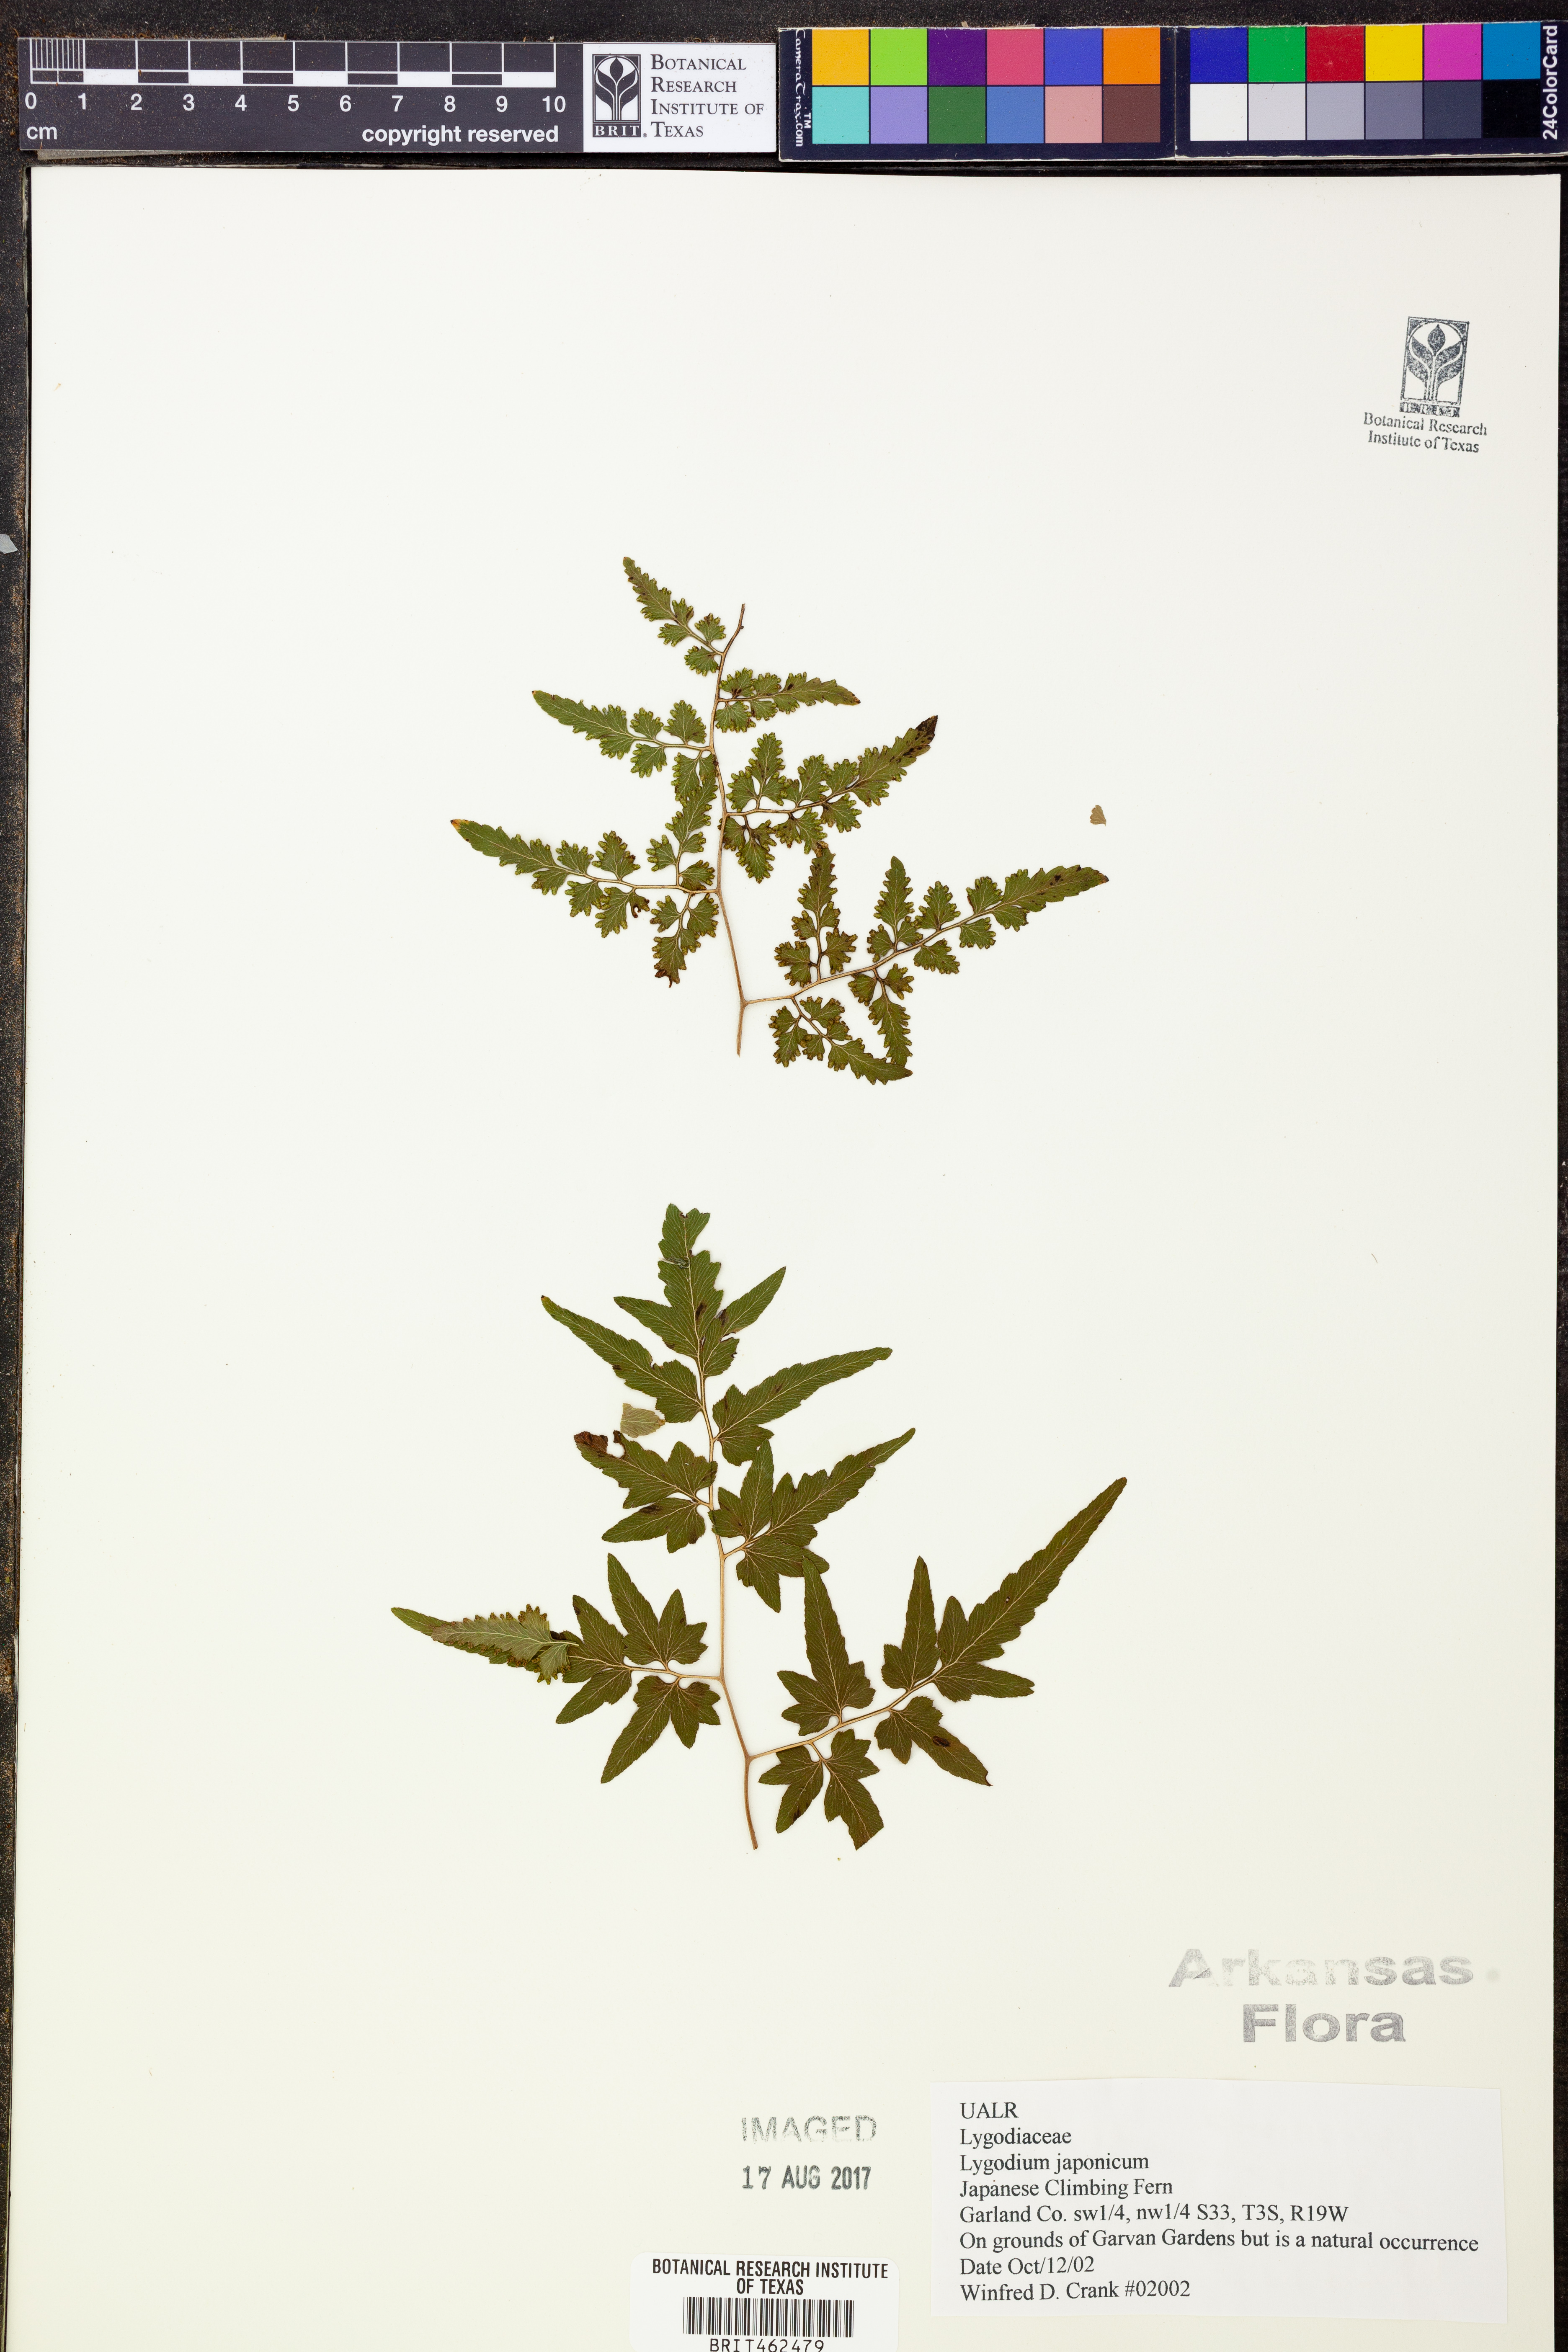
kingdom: Plantae
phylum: Tracheophyta
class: Polypodiopsida
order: Schizaeales
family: Lygodiaceae
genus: Lygodium
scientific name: Lygodium japonicum
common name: Japanese climbing fern
